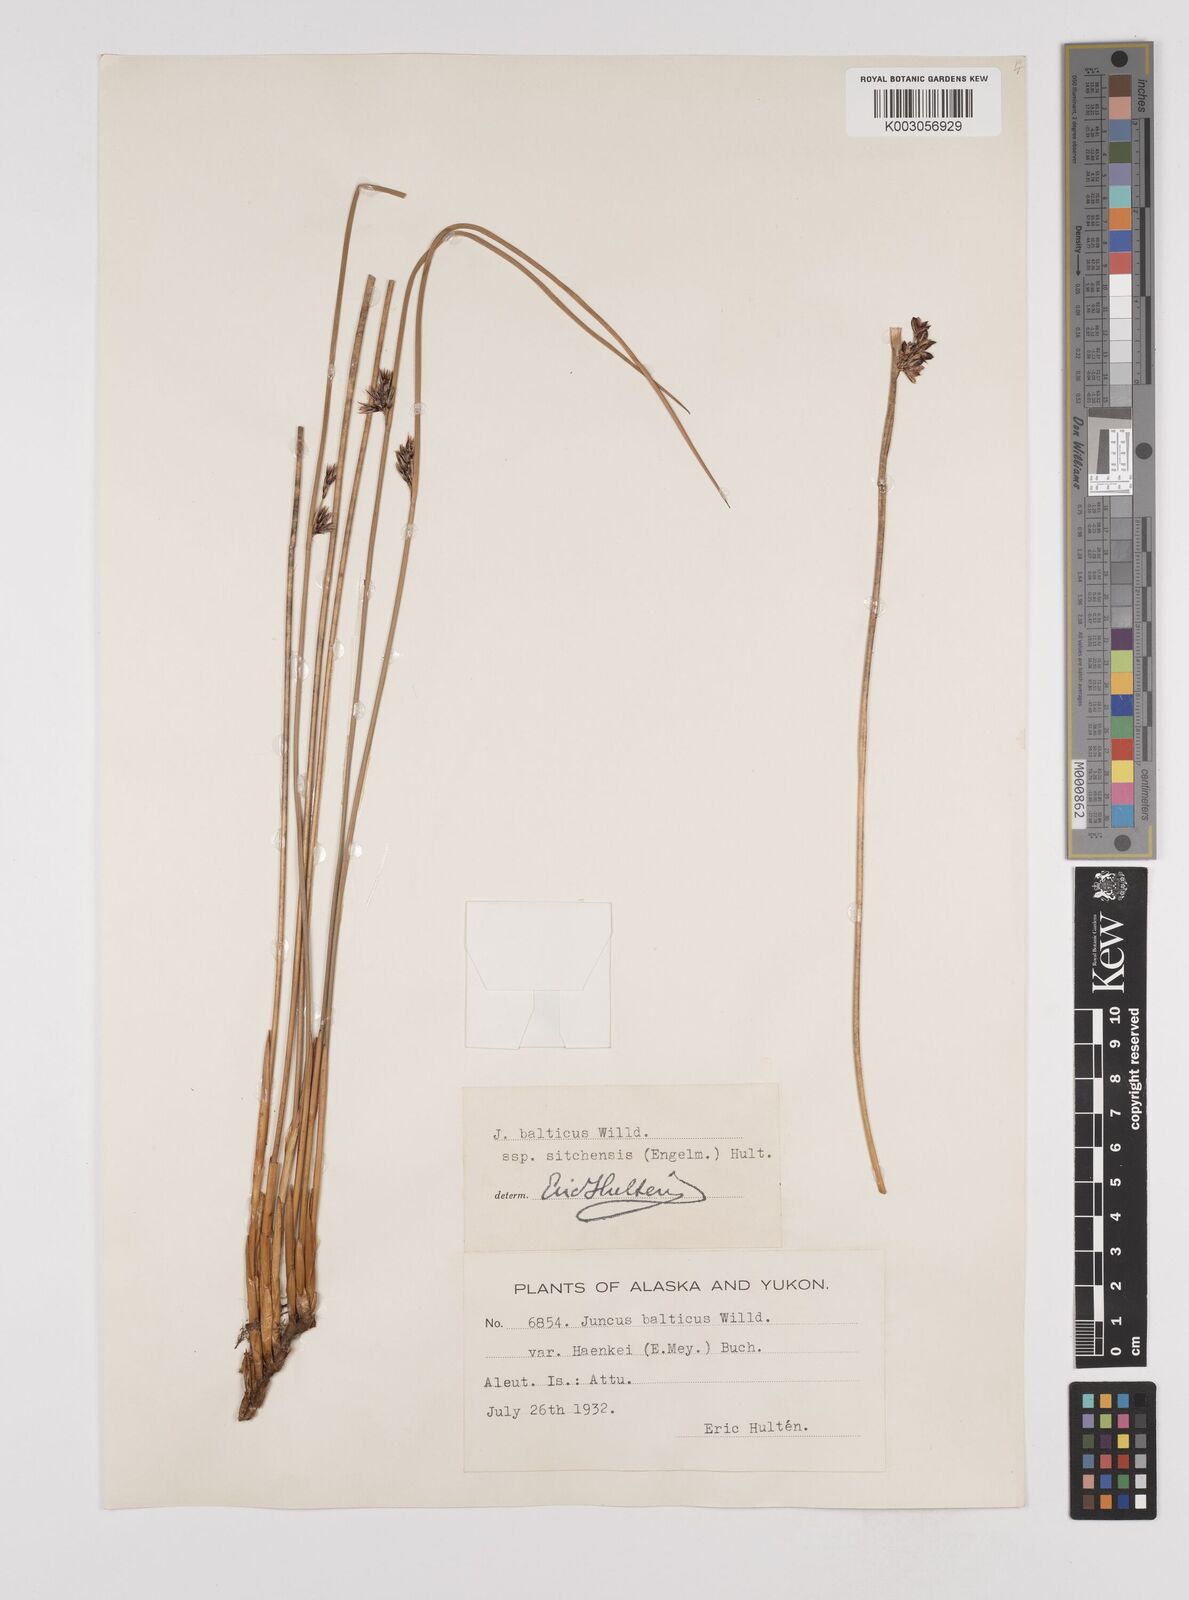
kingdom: Plantae
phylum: Tracheophyta
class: Liliopsida
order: Poales
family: Juncaceae
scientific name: Juncaceae
